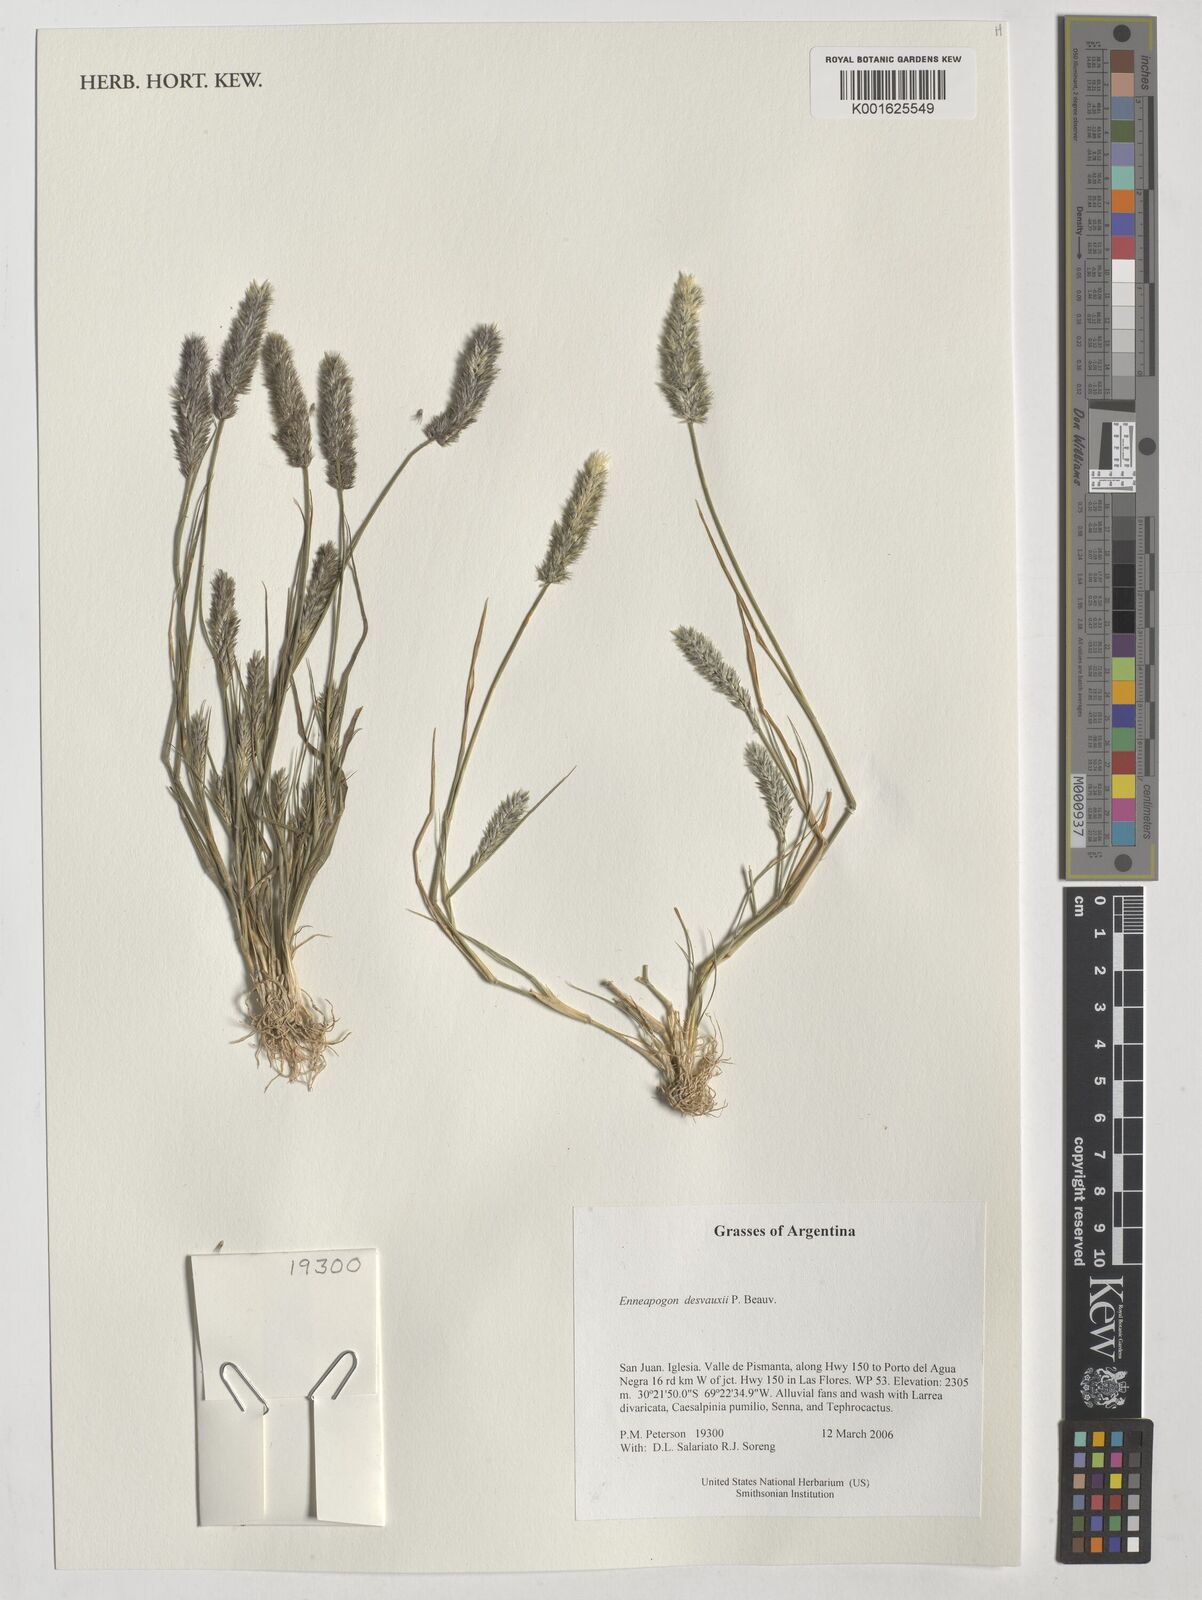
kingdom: Plantae
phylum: Tracheophyta
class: Liliopsida
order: Poales
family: Poaceae
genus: Enneapogon
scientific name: Enneapogon desvauxii
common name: Feather pappus grass
